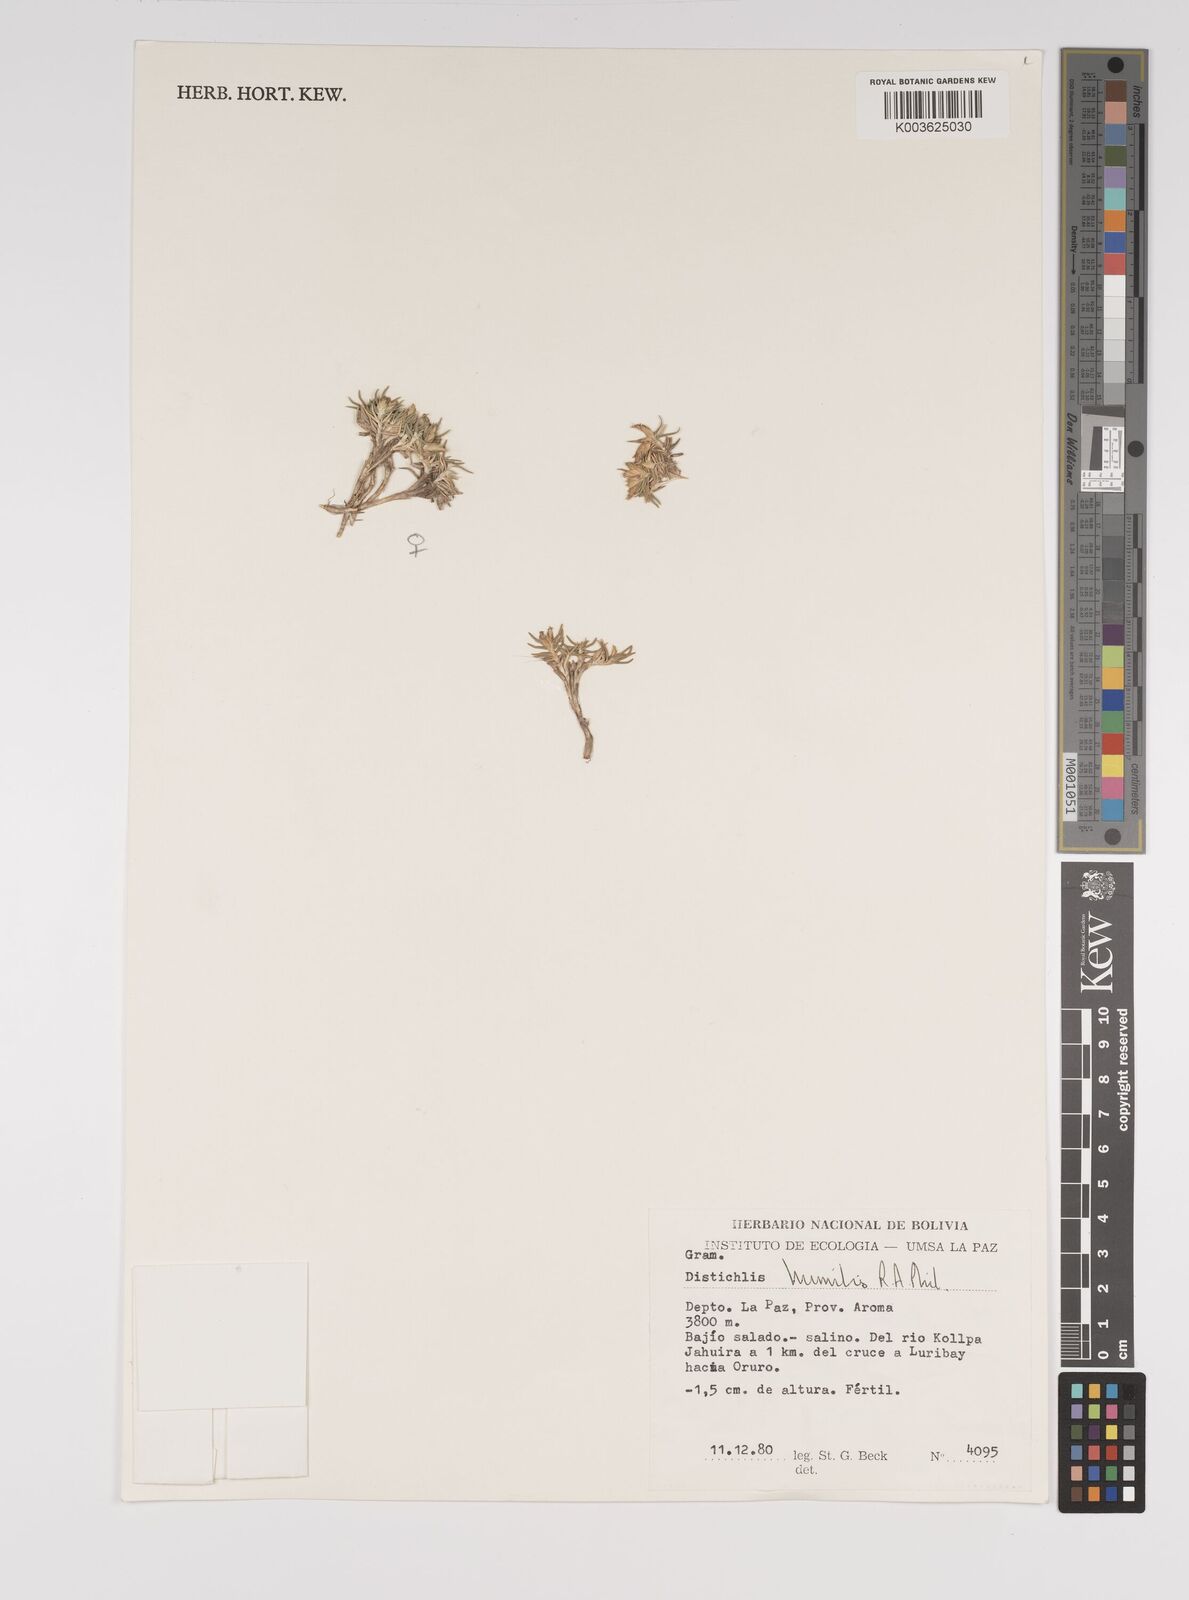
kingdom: Plantae
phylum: Tracheophyta
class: Liliopsida
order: Poales
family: Poaceae
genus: Distichlis
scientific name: Distichlis humilis
